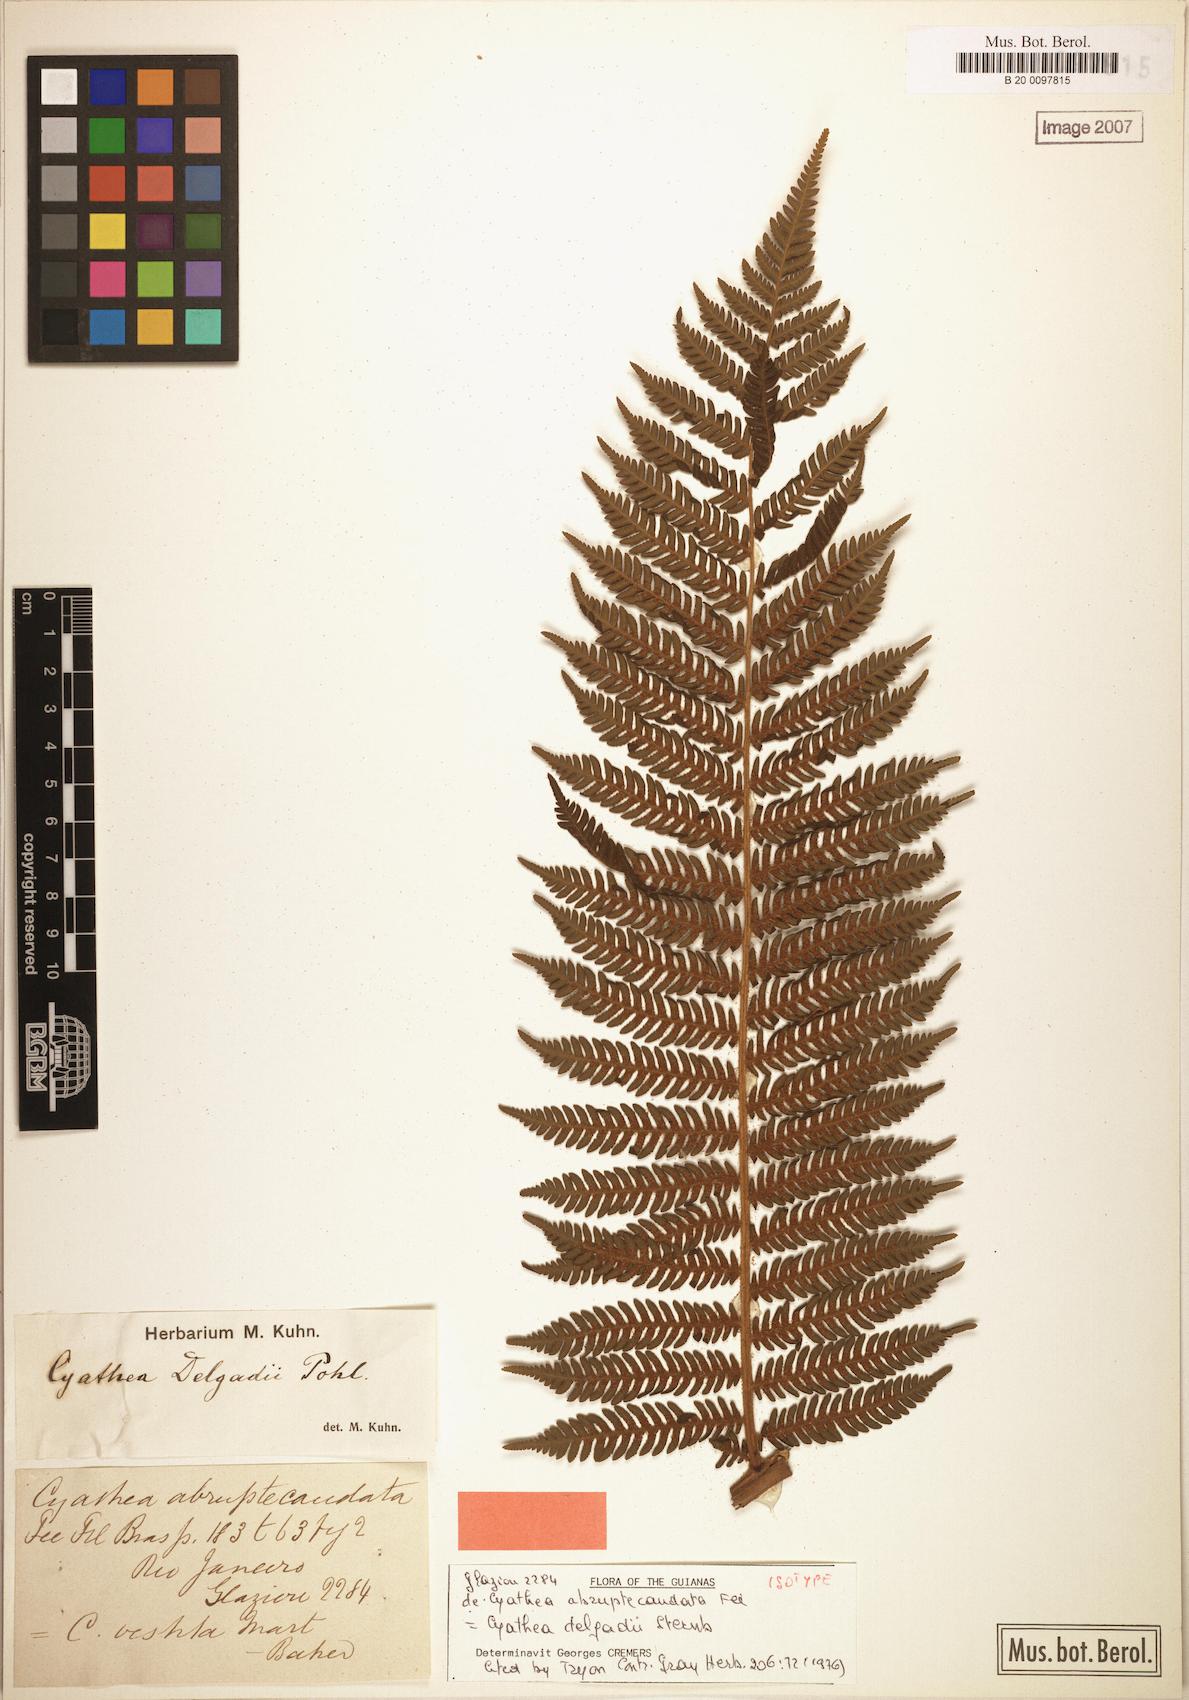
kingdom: Plantae
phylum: Tracheophyta
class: Polypodiopsida
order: Cyatheales
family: Cyatheaceae
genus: Cyathea
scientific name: Cyathea delgadii
